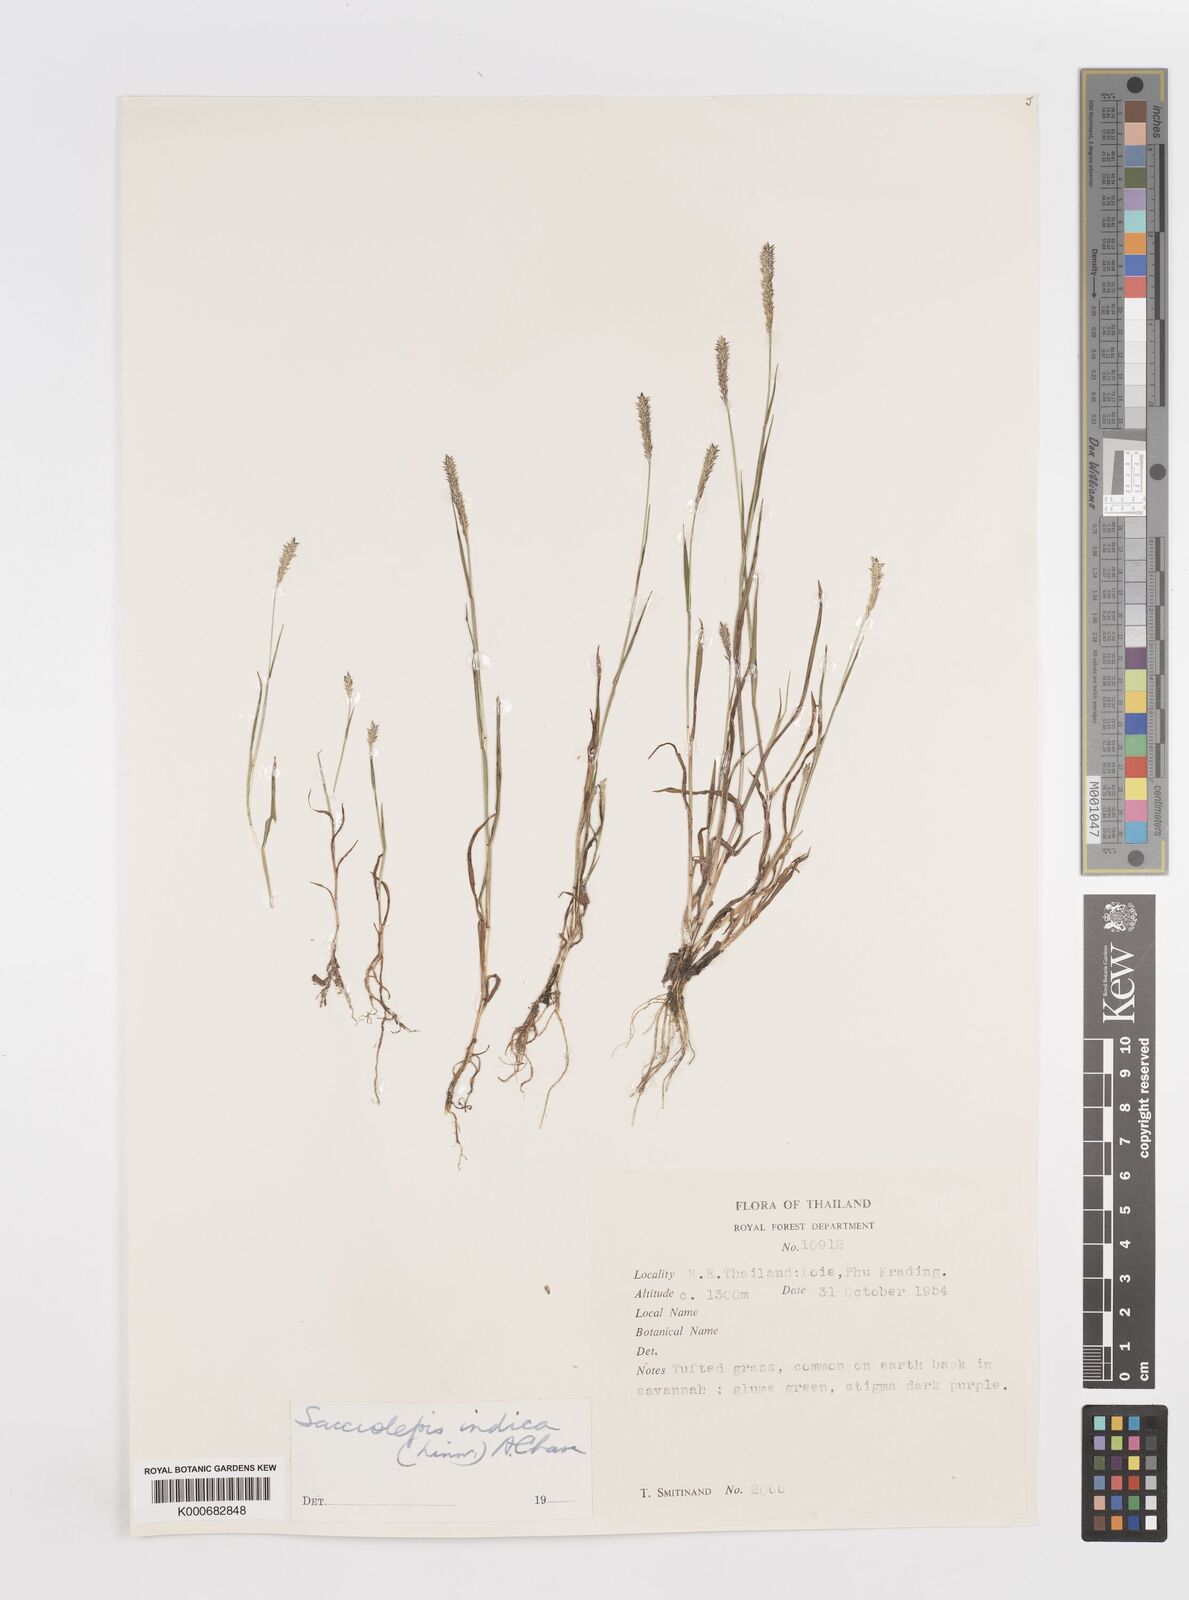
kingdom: Plantae
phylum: Tracheophyta
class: Liliopsida
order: Poales
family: Poaceae
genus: Sacciolepis
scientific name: Sacciolepis indica
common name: Glenwoodgrass
